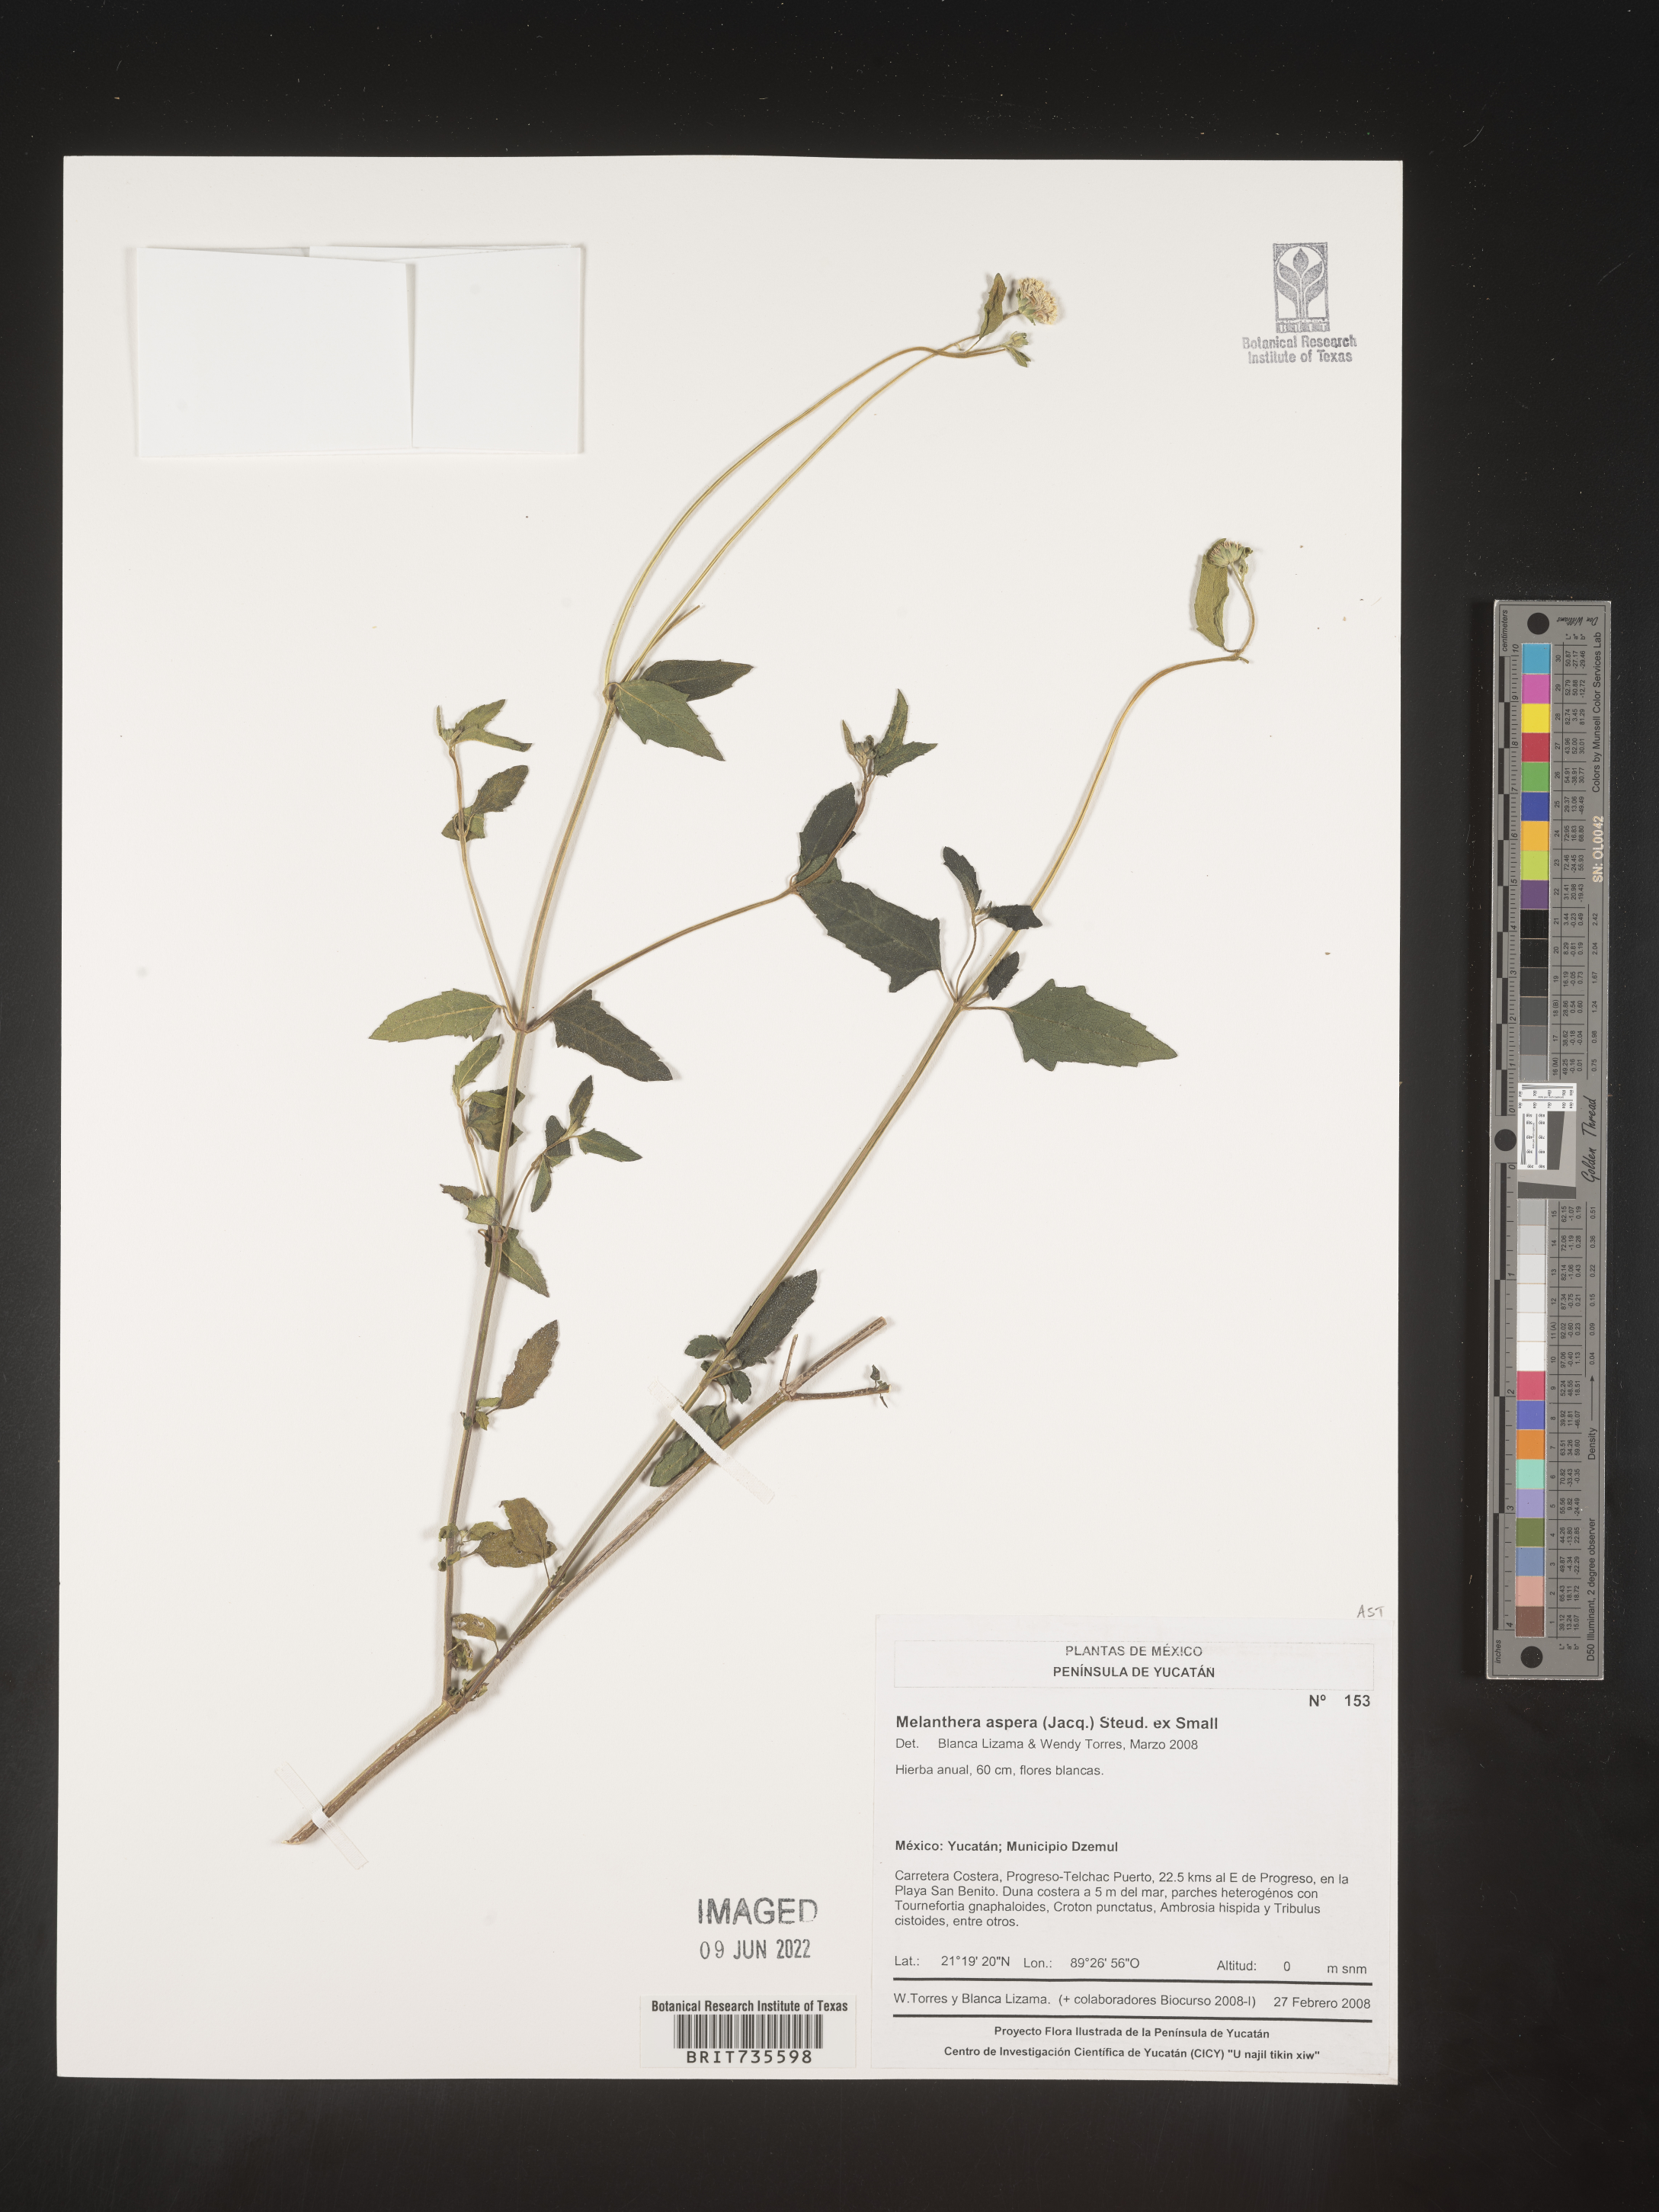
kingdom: Plantae
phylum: Tracheophyta
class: Magnoliopsida
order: Asterales
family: Asteraceae
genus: Melanthera
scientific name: Melanthera
